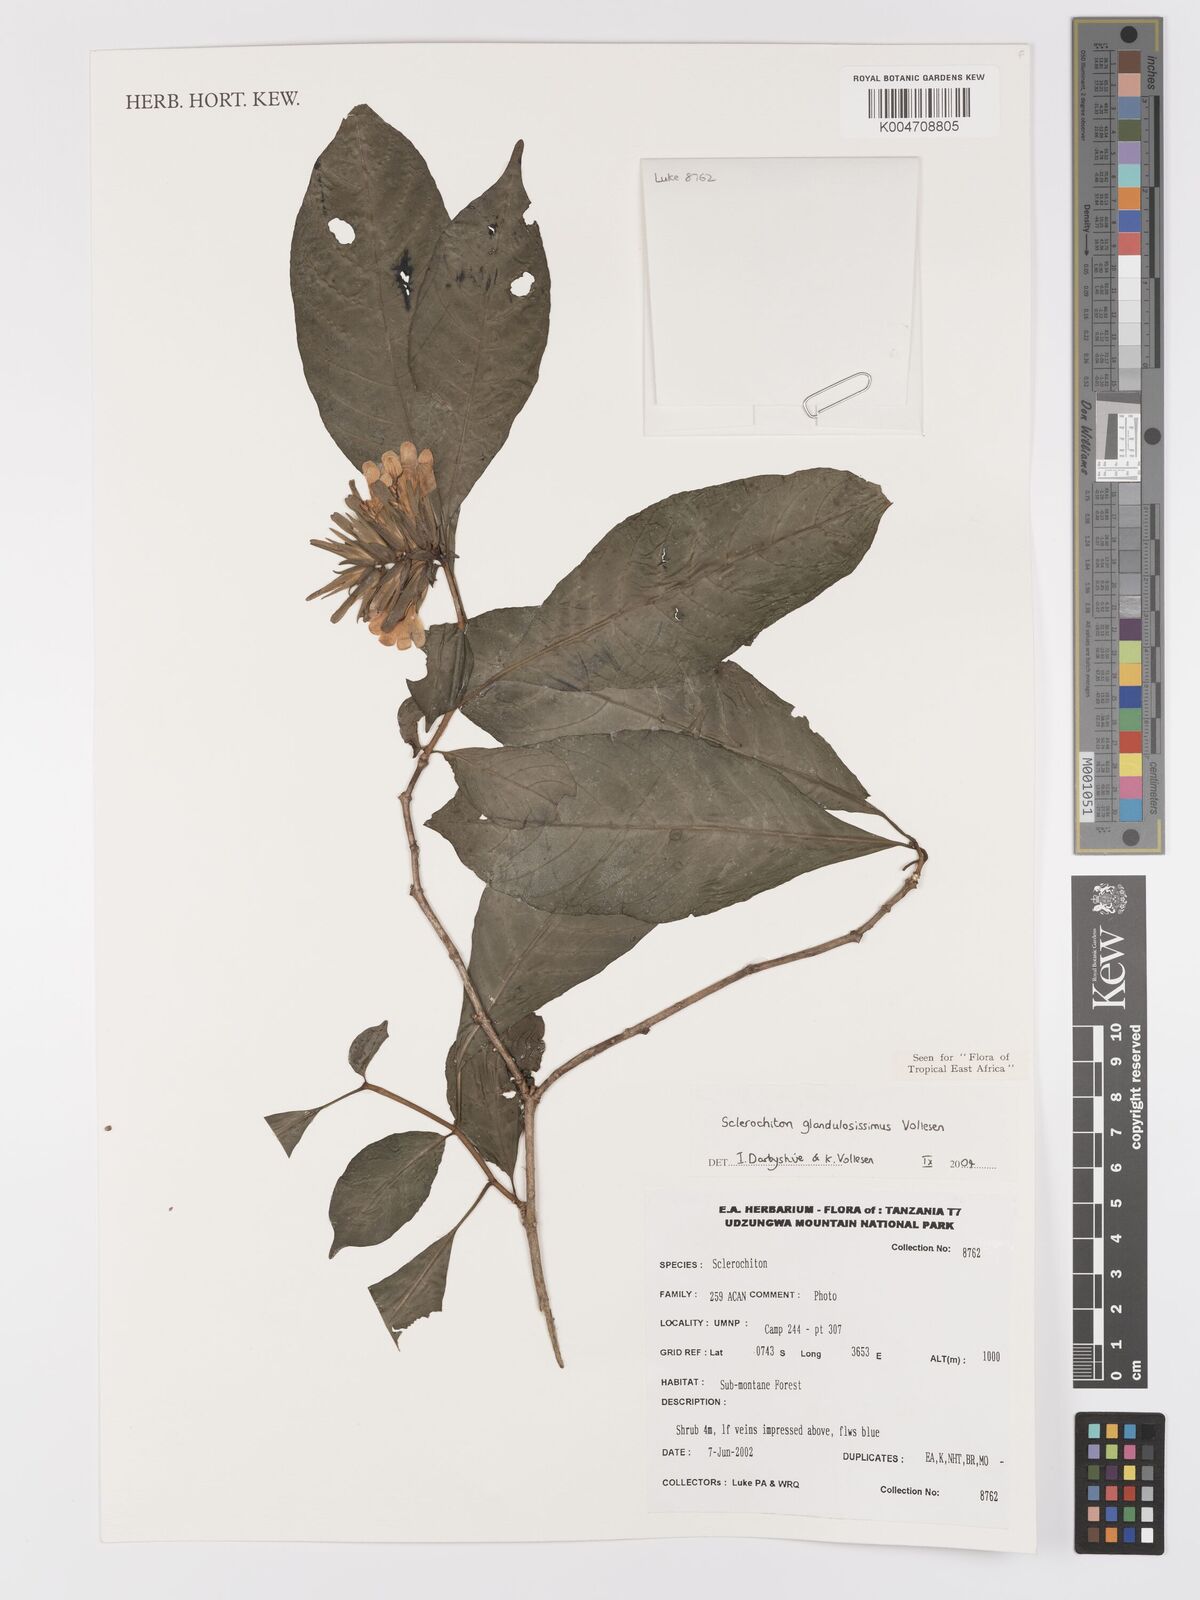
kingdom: Plantae
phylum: Tracheophyta
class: Magnoliopsida
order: Lamiales
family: Acanthaceae
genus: Sclerochiton
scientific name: Sclerochiton glandulosissimus
